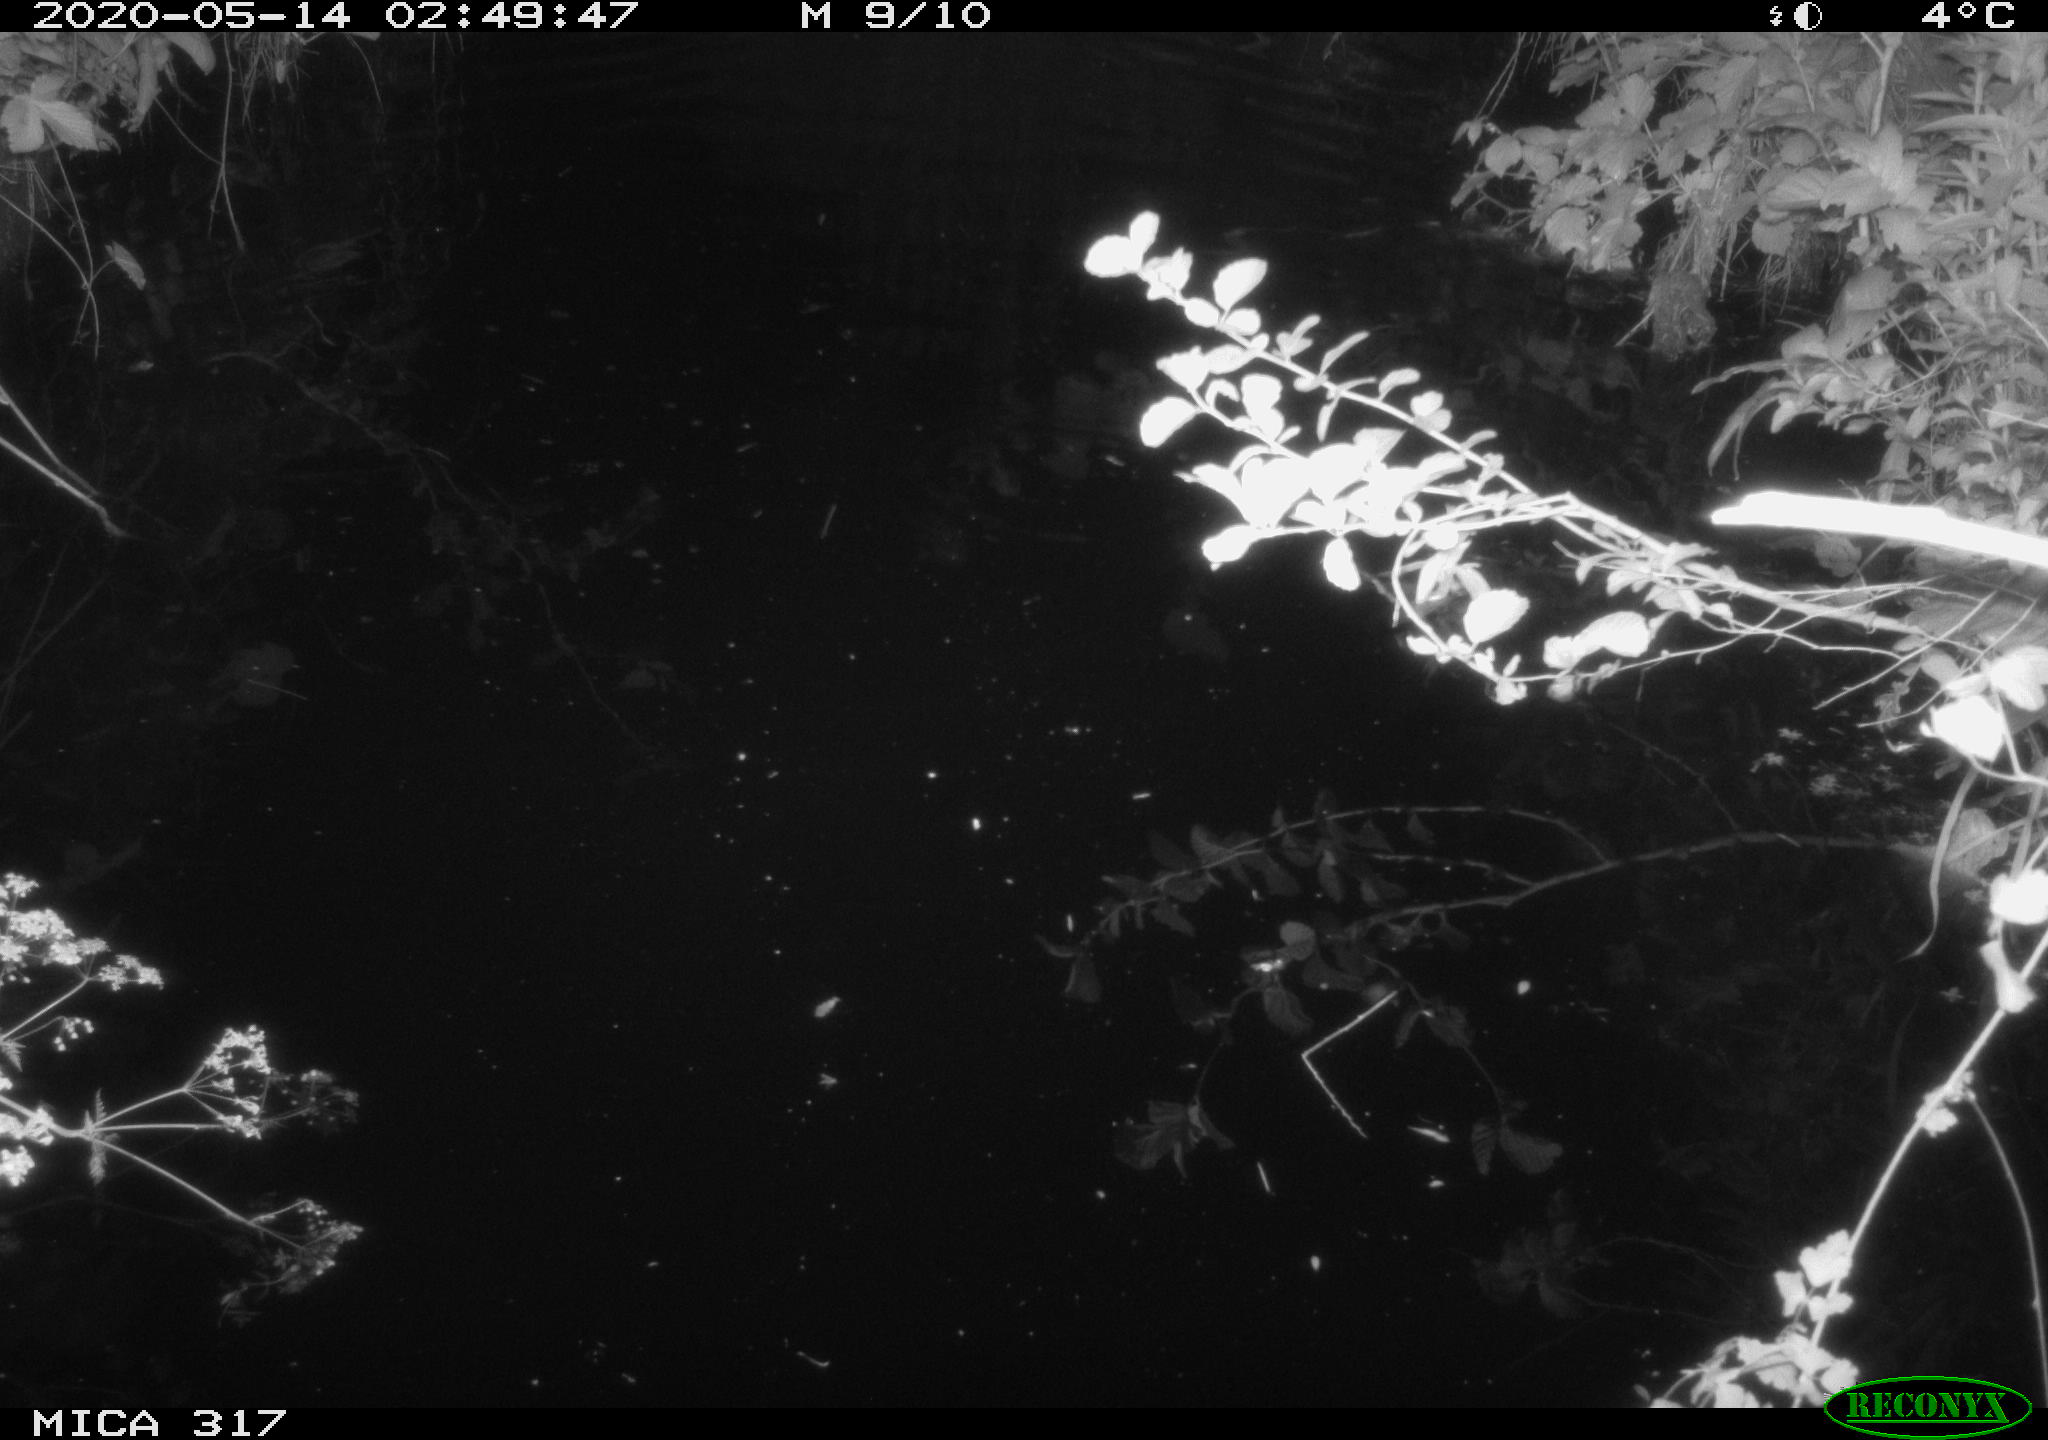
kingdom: Animalia
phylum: Chordata
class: Aves
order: Anseriformes
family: Anatidae
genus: Anas
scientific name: Anas platyrhynchos
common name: Mallard
